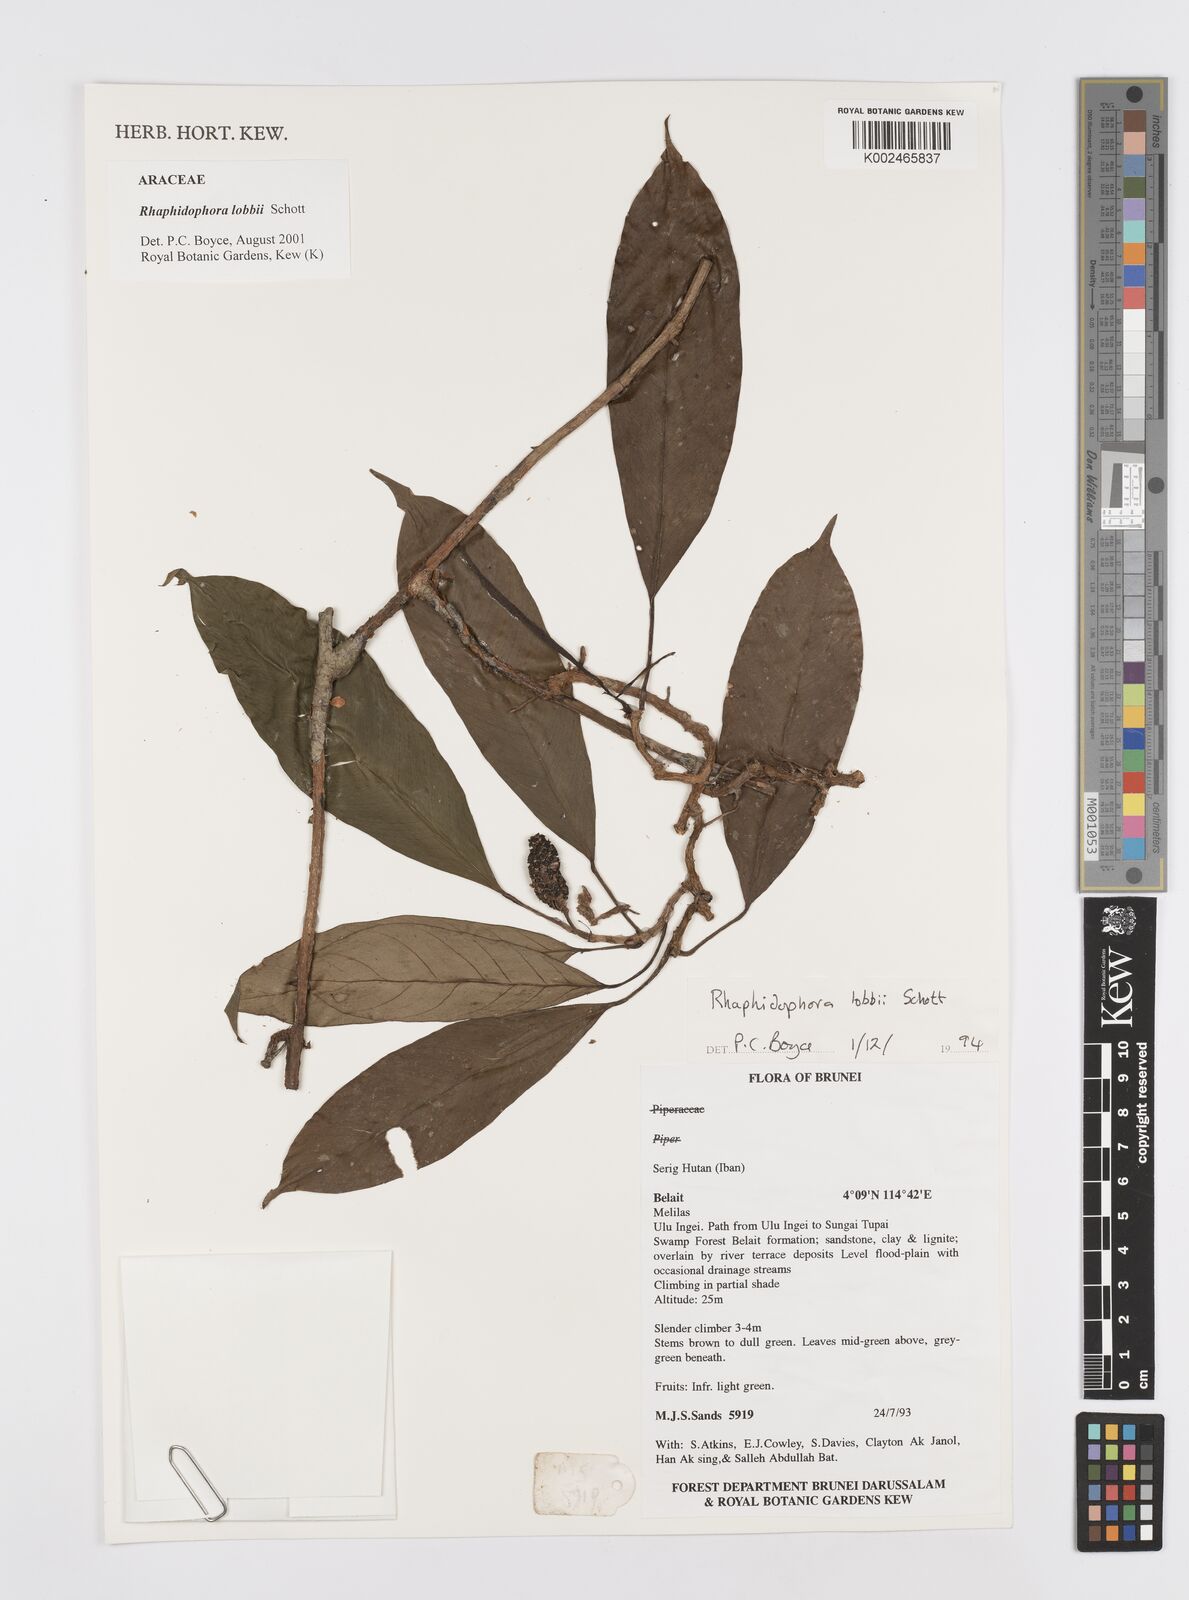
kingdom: Plantae
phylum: Tracheophyta
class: Liliopsida
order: Alismatales
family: Araceae
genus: Rhaphidophora
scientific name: Rhaphidophora lobbii
